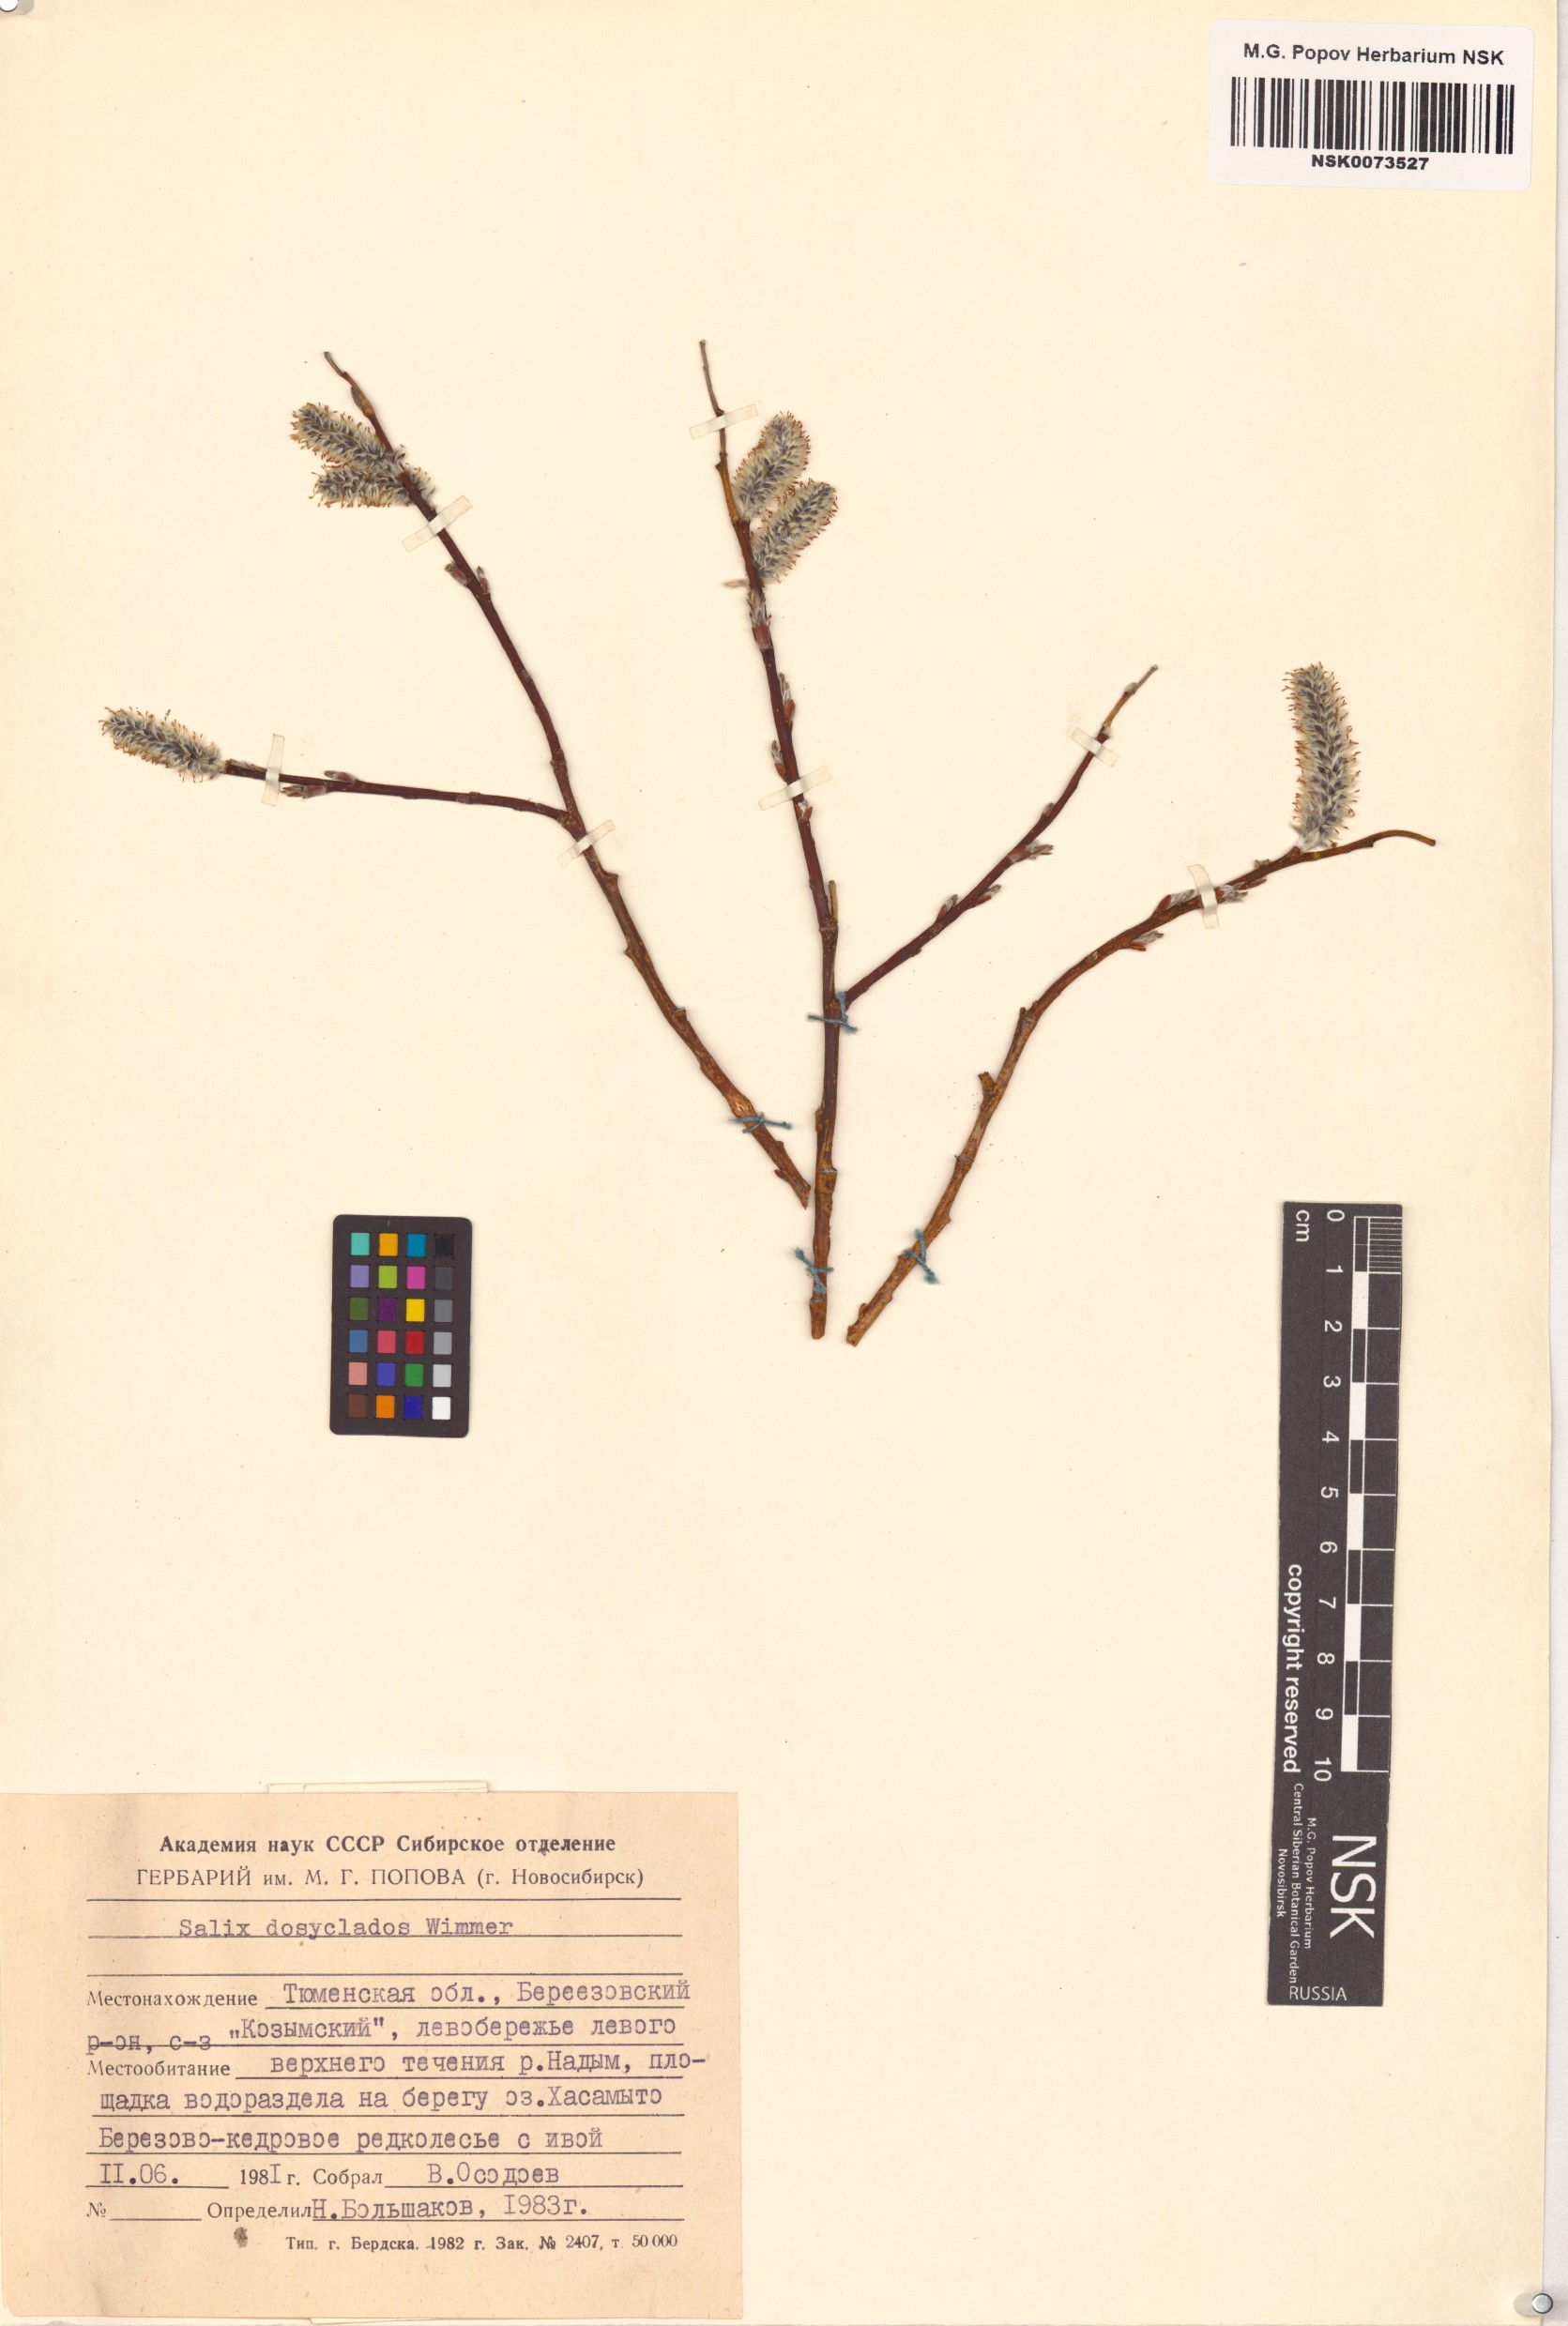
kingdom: Plantae
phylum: Tracheophyta
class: Magnoliopsida
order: Malpighiales
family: Salicaceae
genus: Salix
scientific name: Salix gmelinii
